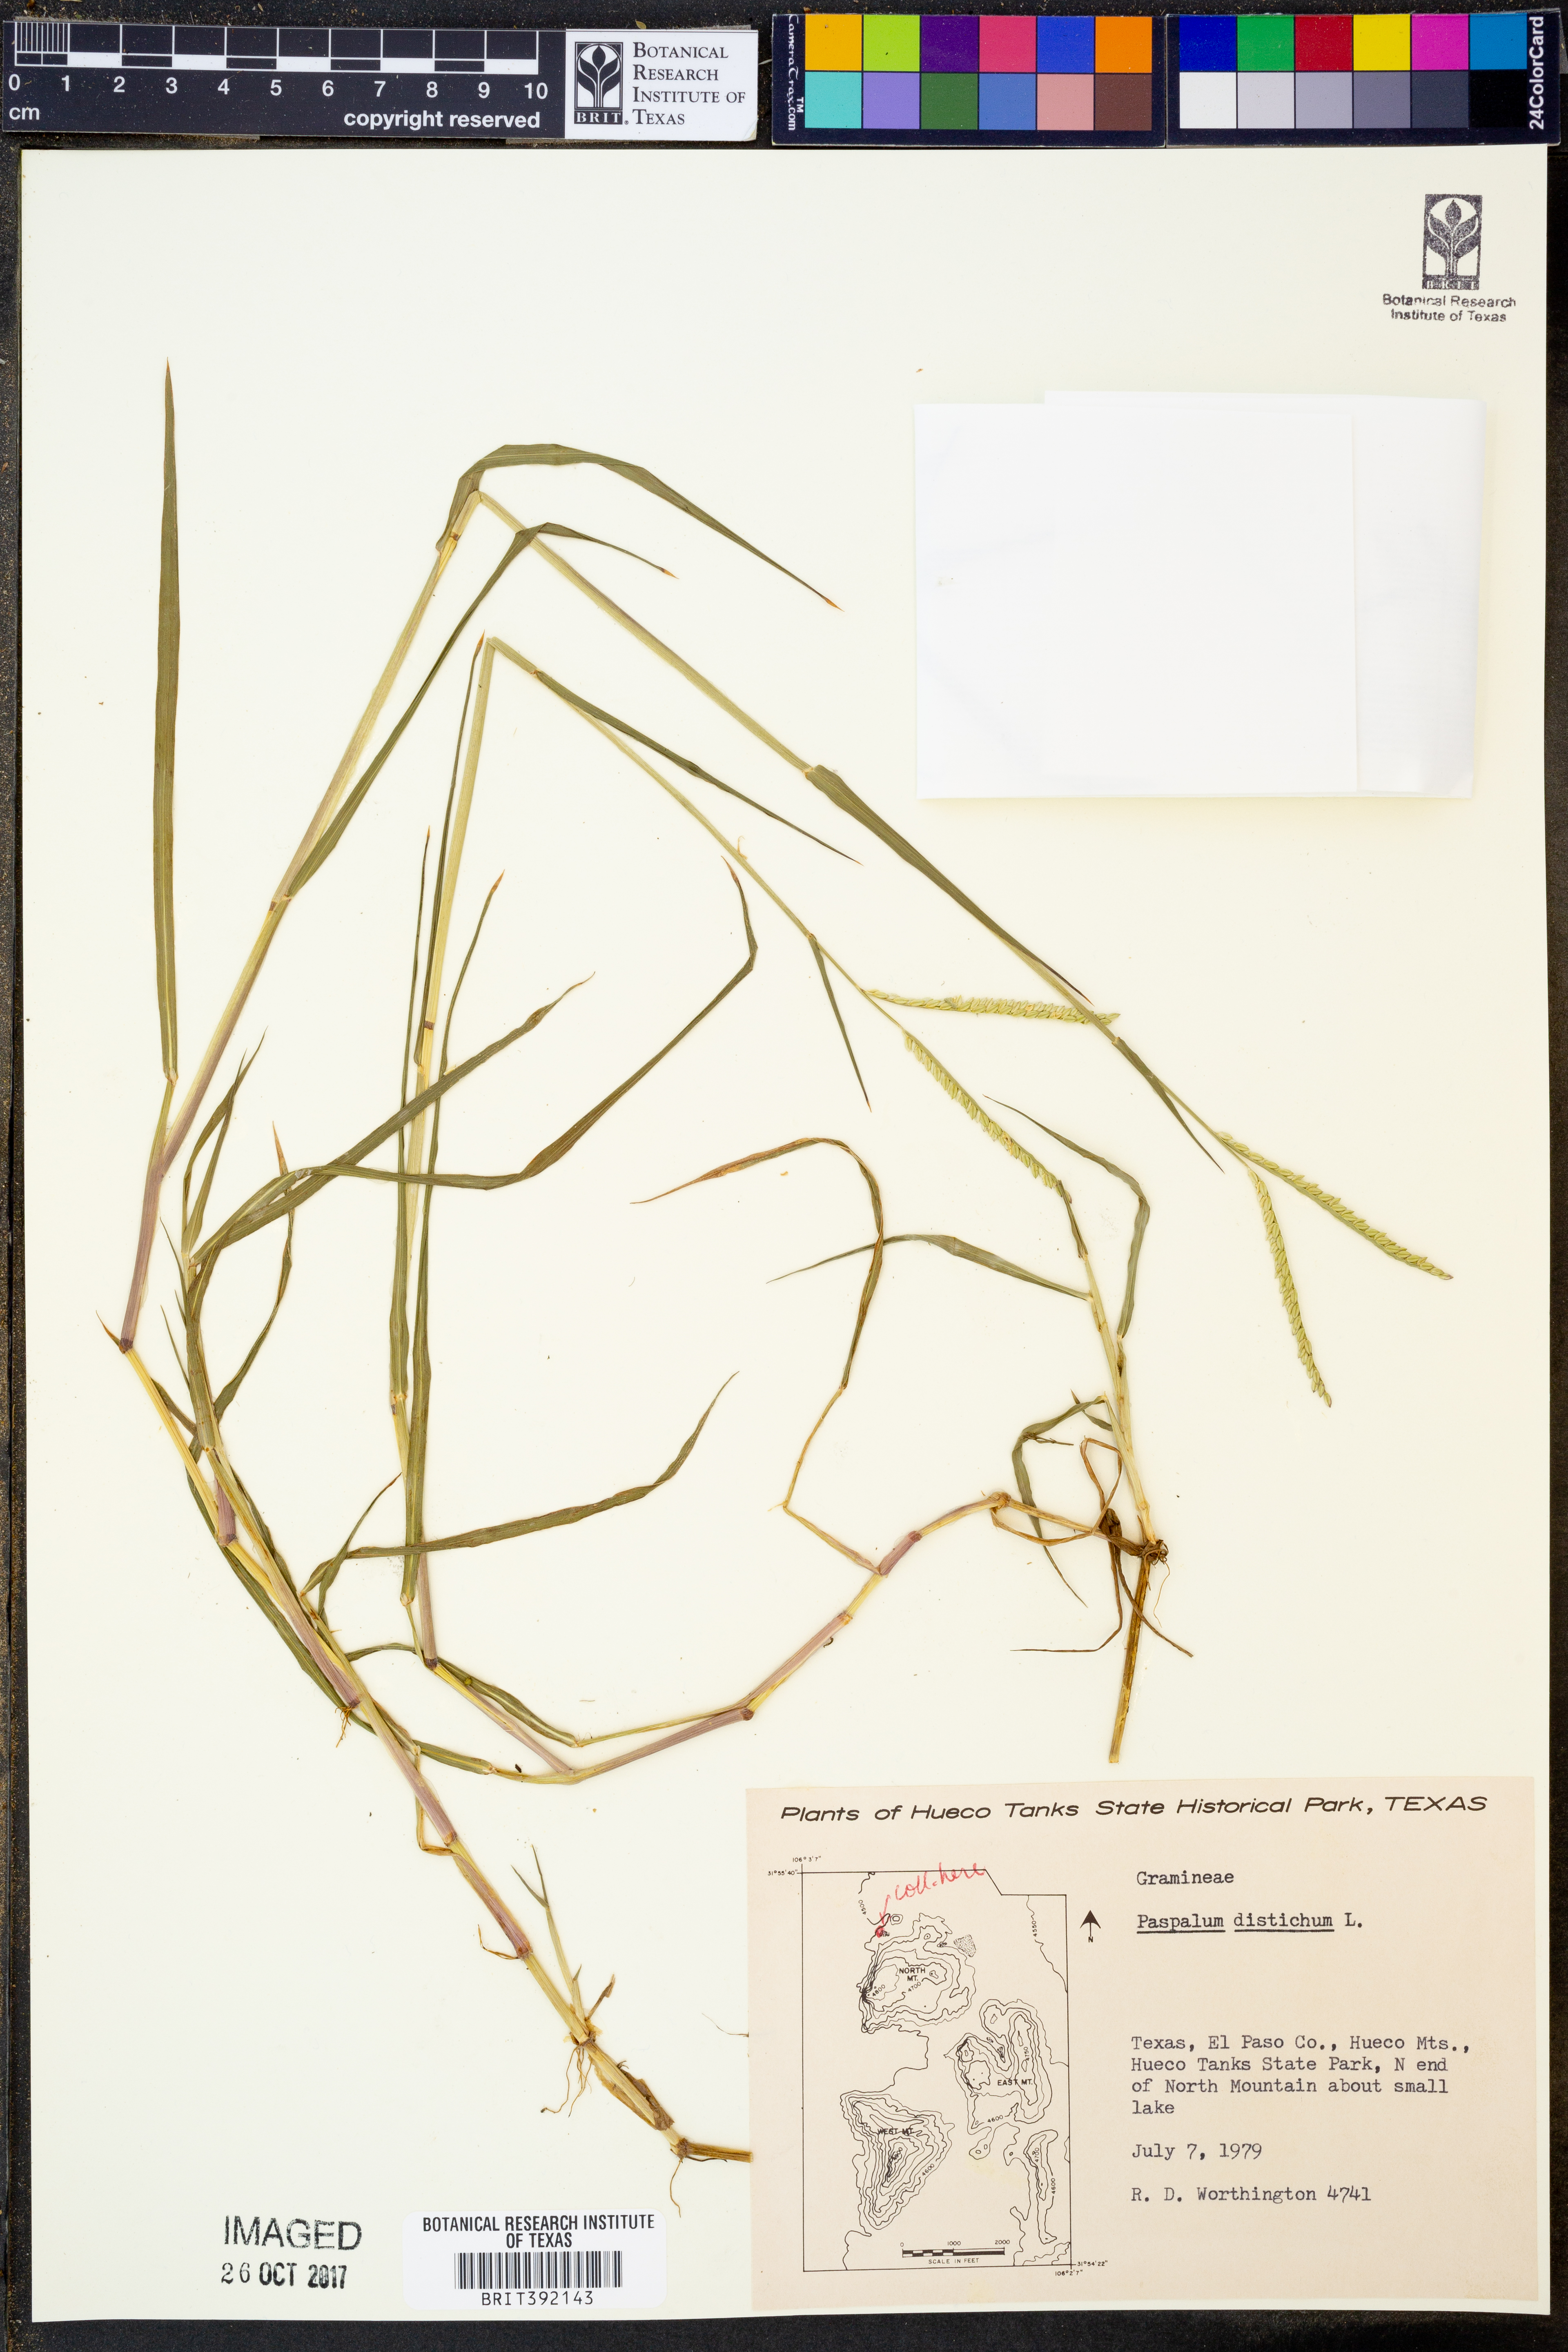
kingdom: Plantae
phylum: Tracheophyta
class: Liliopsida
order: Poales
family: Poaceae
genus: Paspalum
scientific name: Paspalum distichum
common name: Knotgrass
